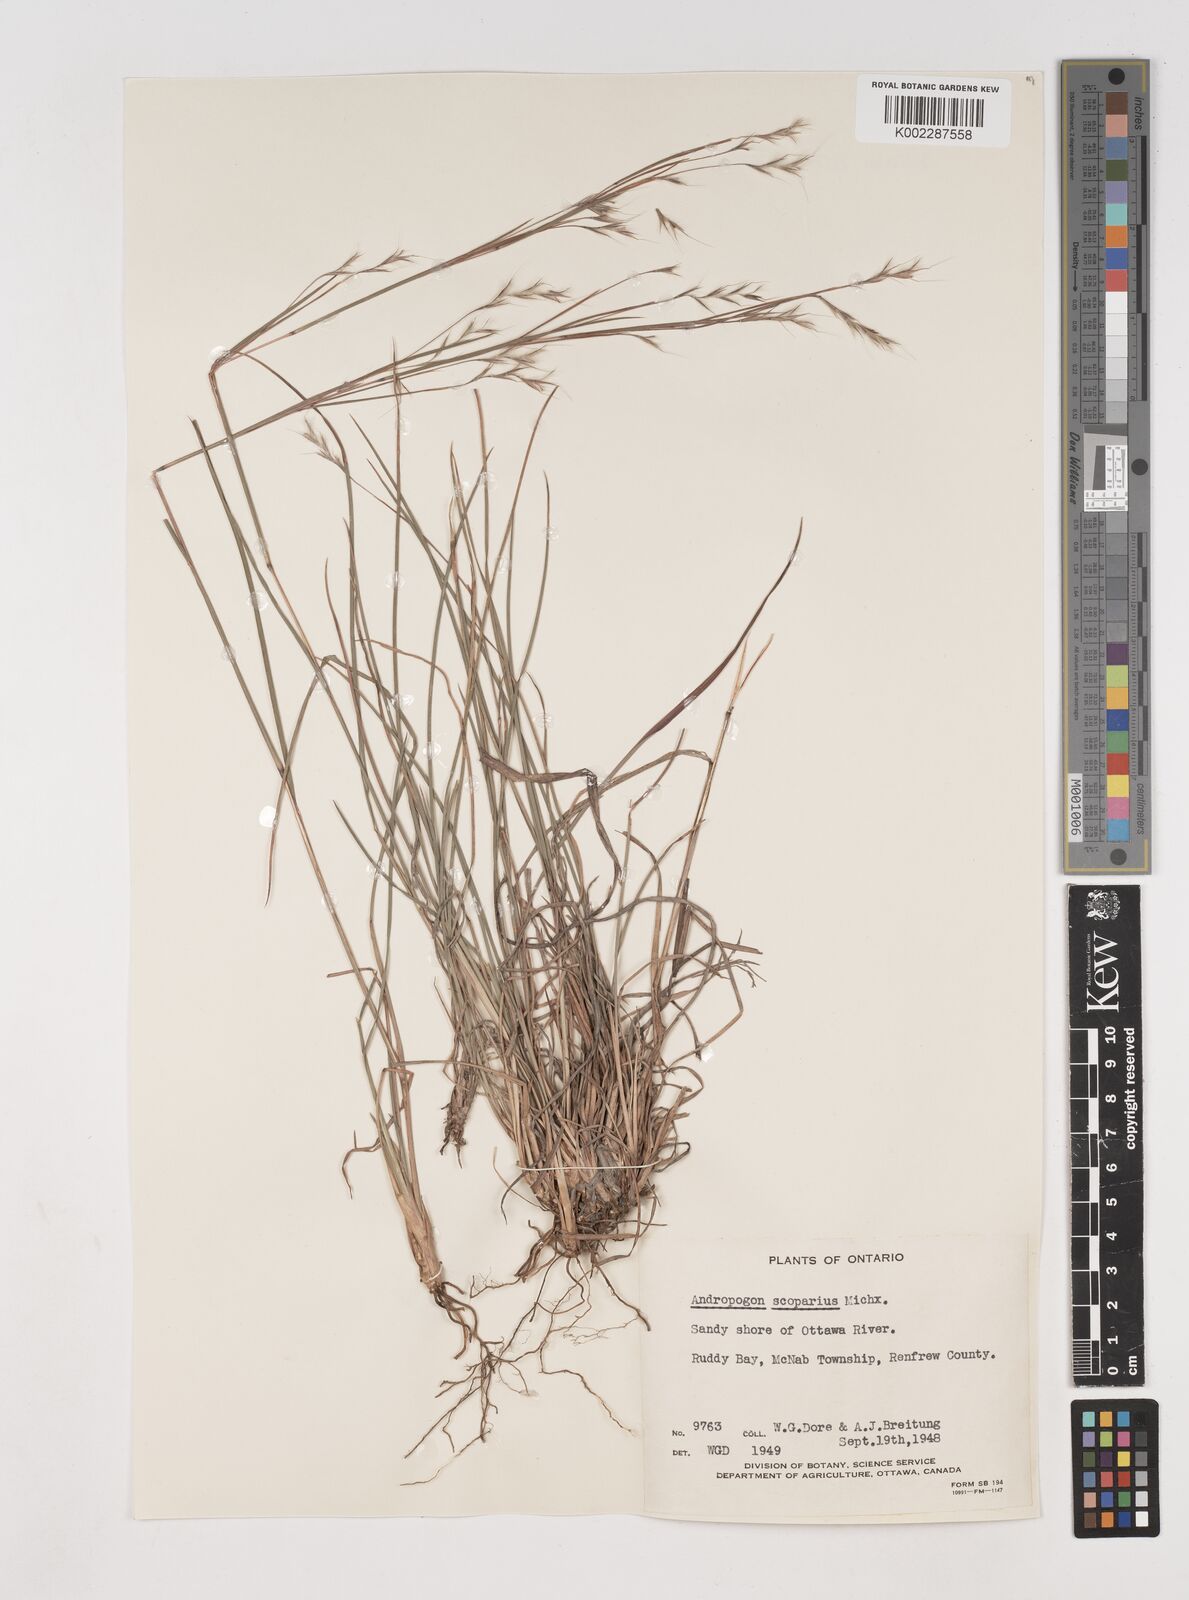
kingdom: Plantae
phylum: Tracheophyta
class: Liliopsida
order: Poales
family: Poaceae
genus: Schizachyrium
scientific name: Schizachyrium scoparium
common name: Little bluestem
